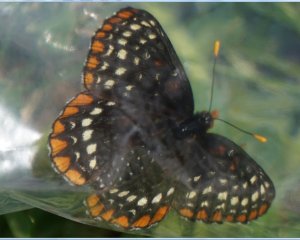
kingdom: Animalia
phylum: Arthropoda
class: Insecta
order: Lepidoptera
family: Nymphalidae
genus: Euphydryas
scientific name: Euphydryas phaeton
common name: Baltimore Checkerspot
